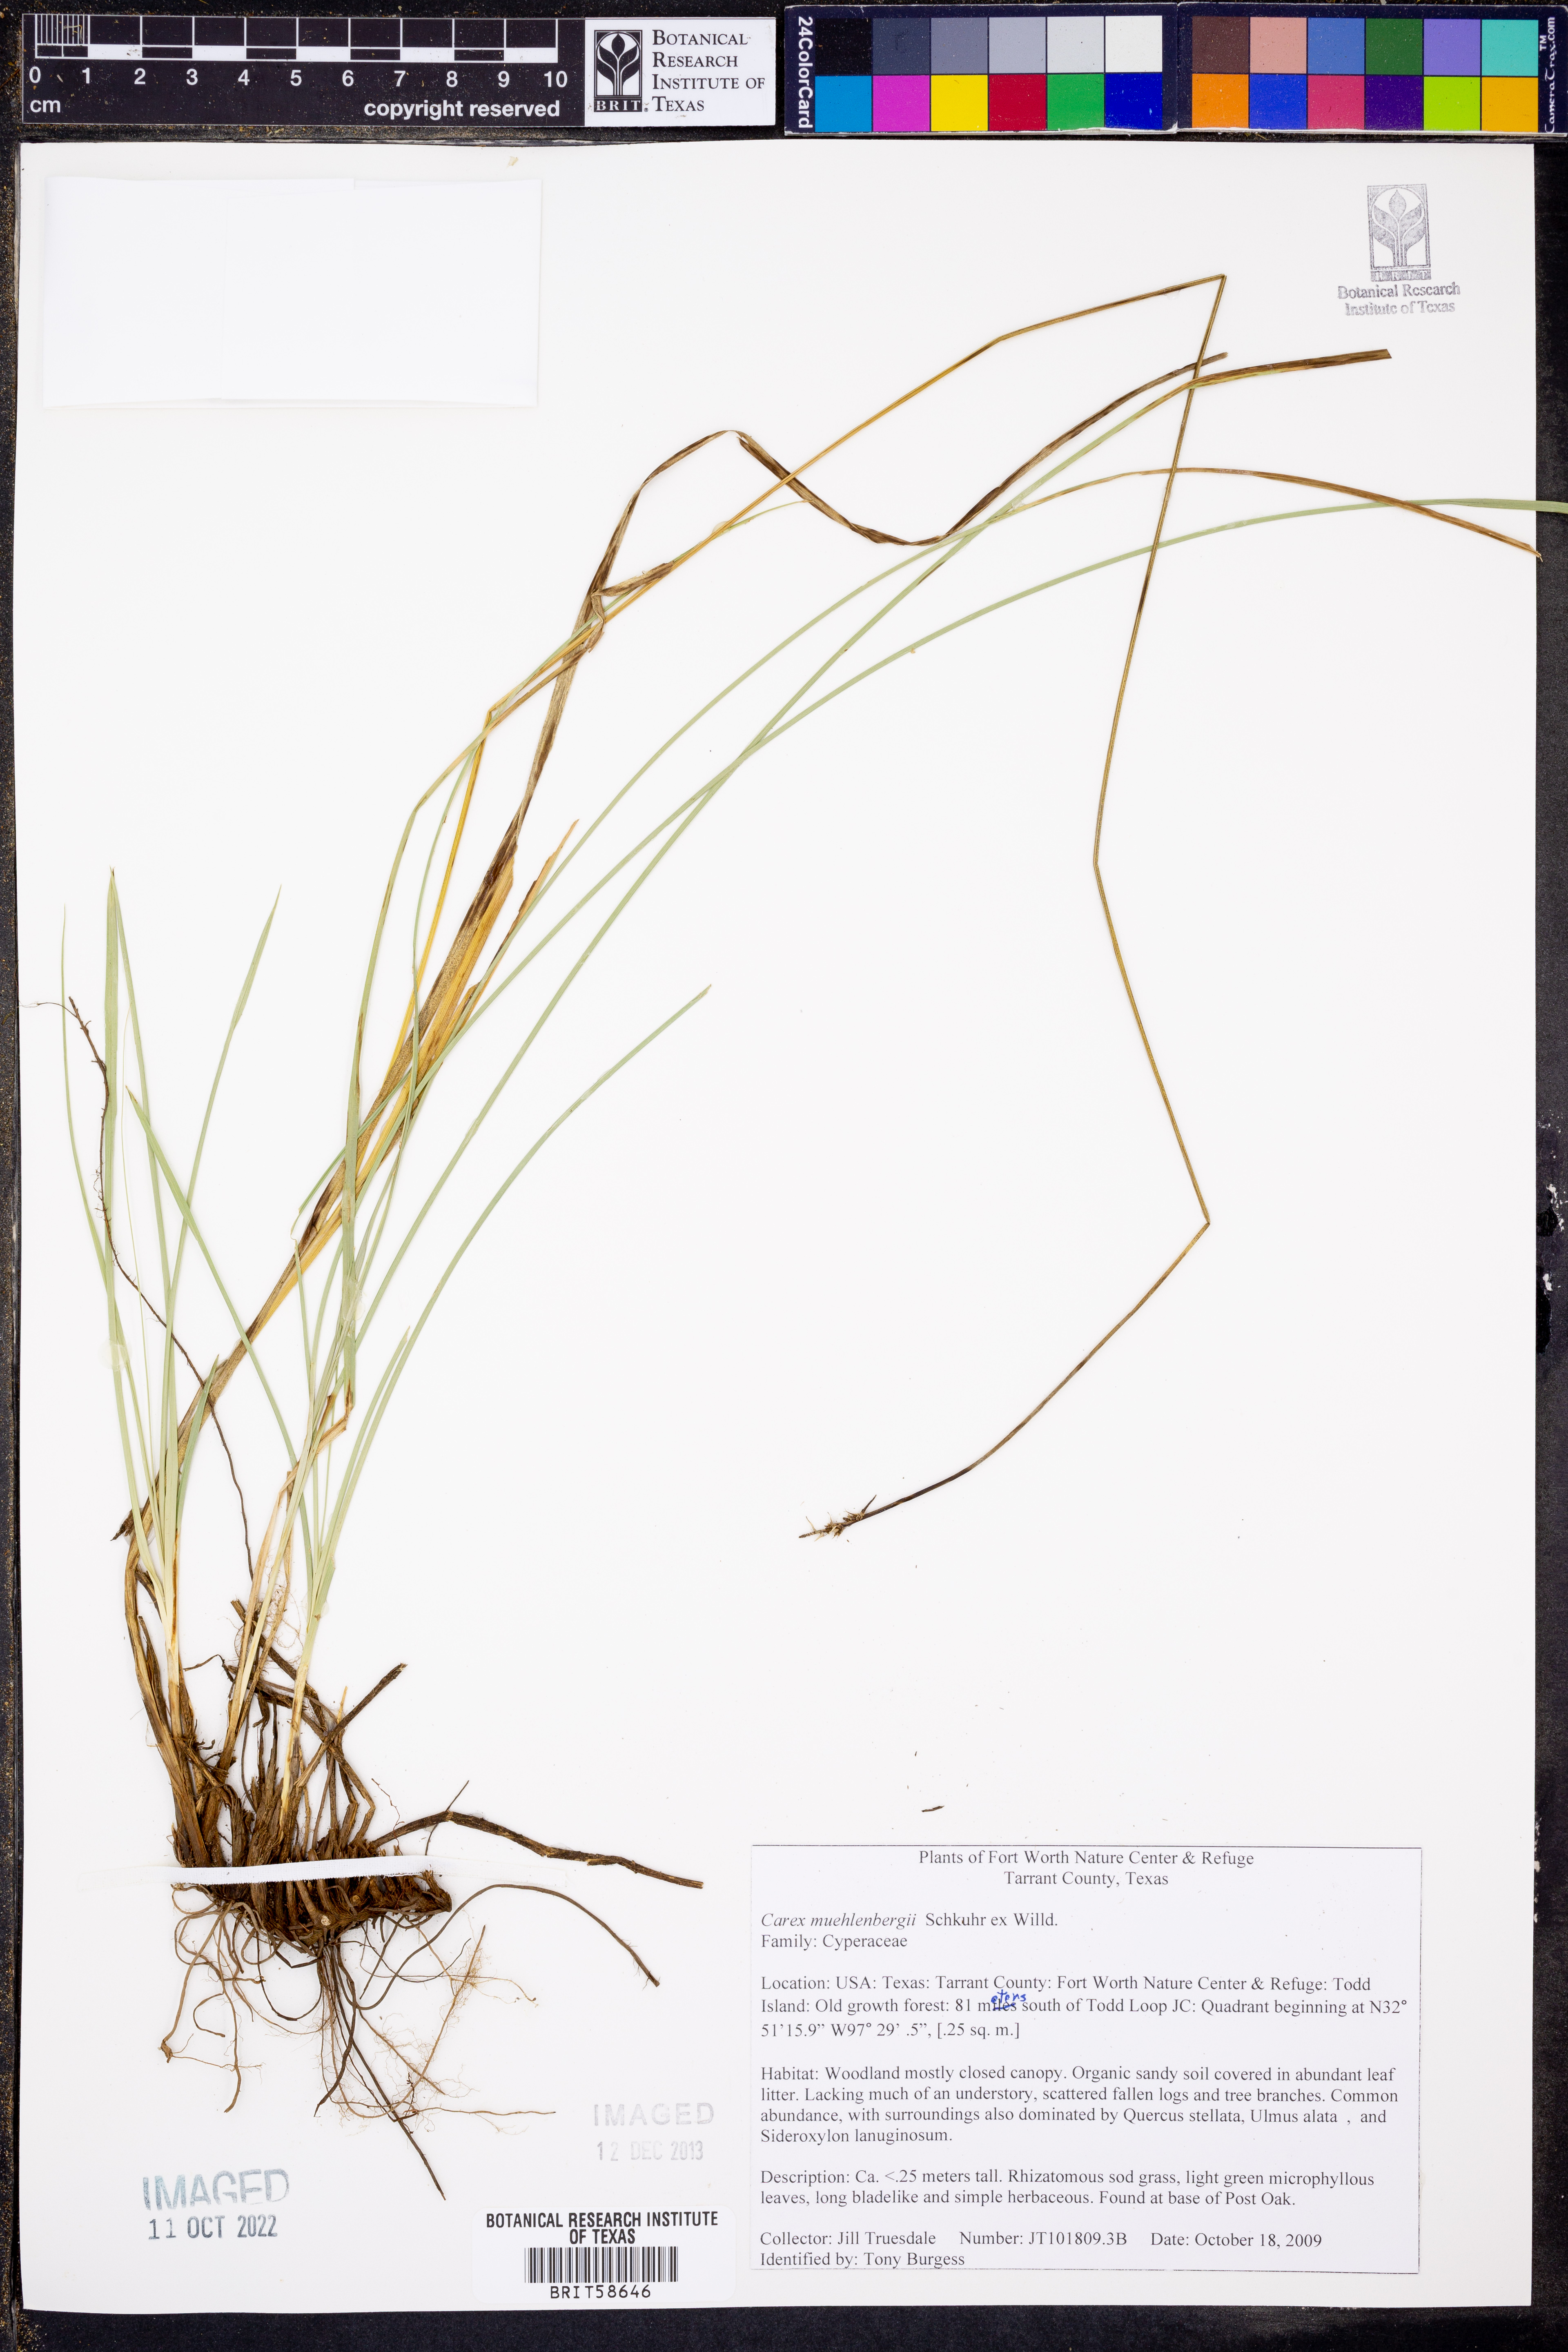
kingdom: Plantae
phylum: Tracheophyta
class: Liliopsida
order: Poales
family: Cyperaceae
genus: Carex
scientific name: Carex muehlenbergii
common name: Muhlenberg's bracted sedge
